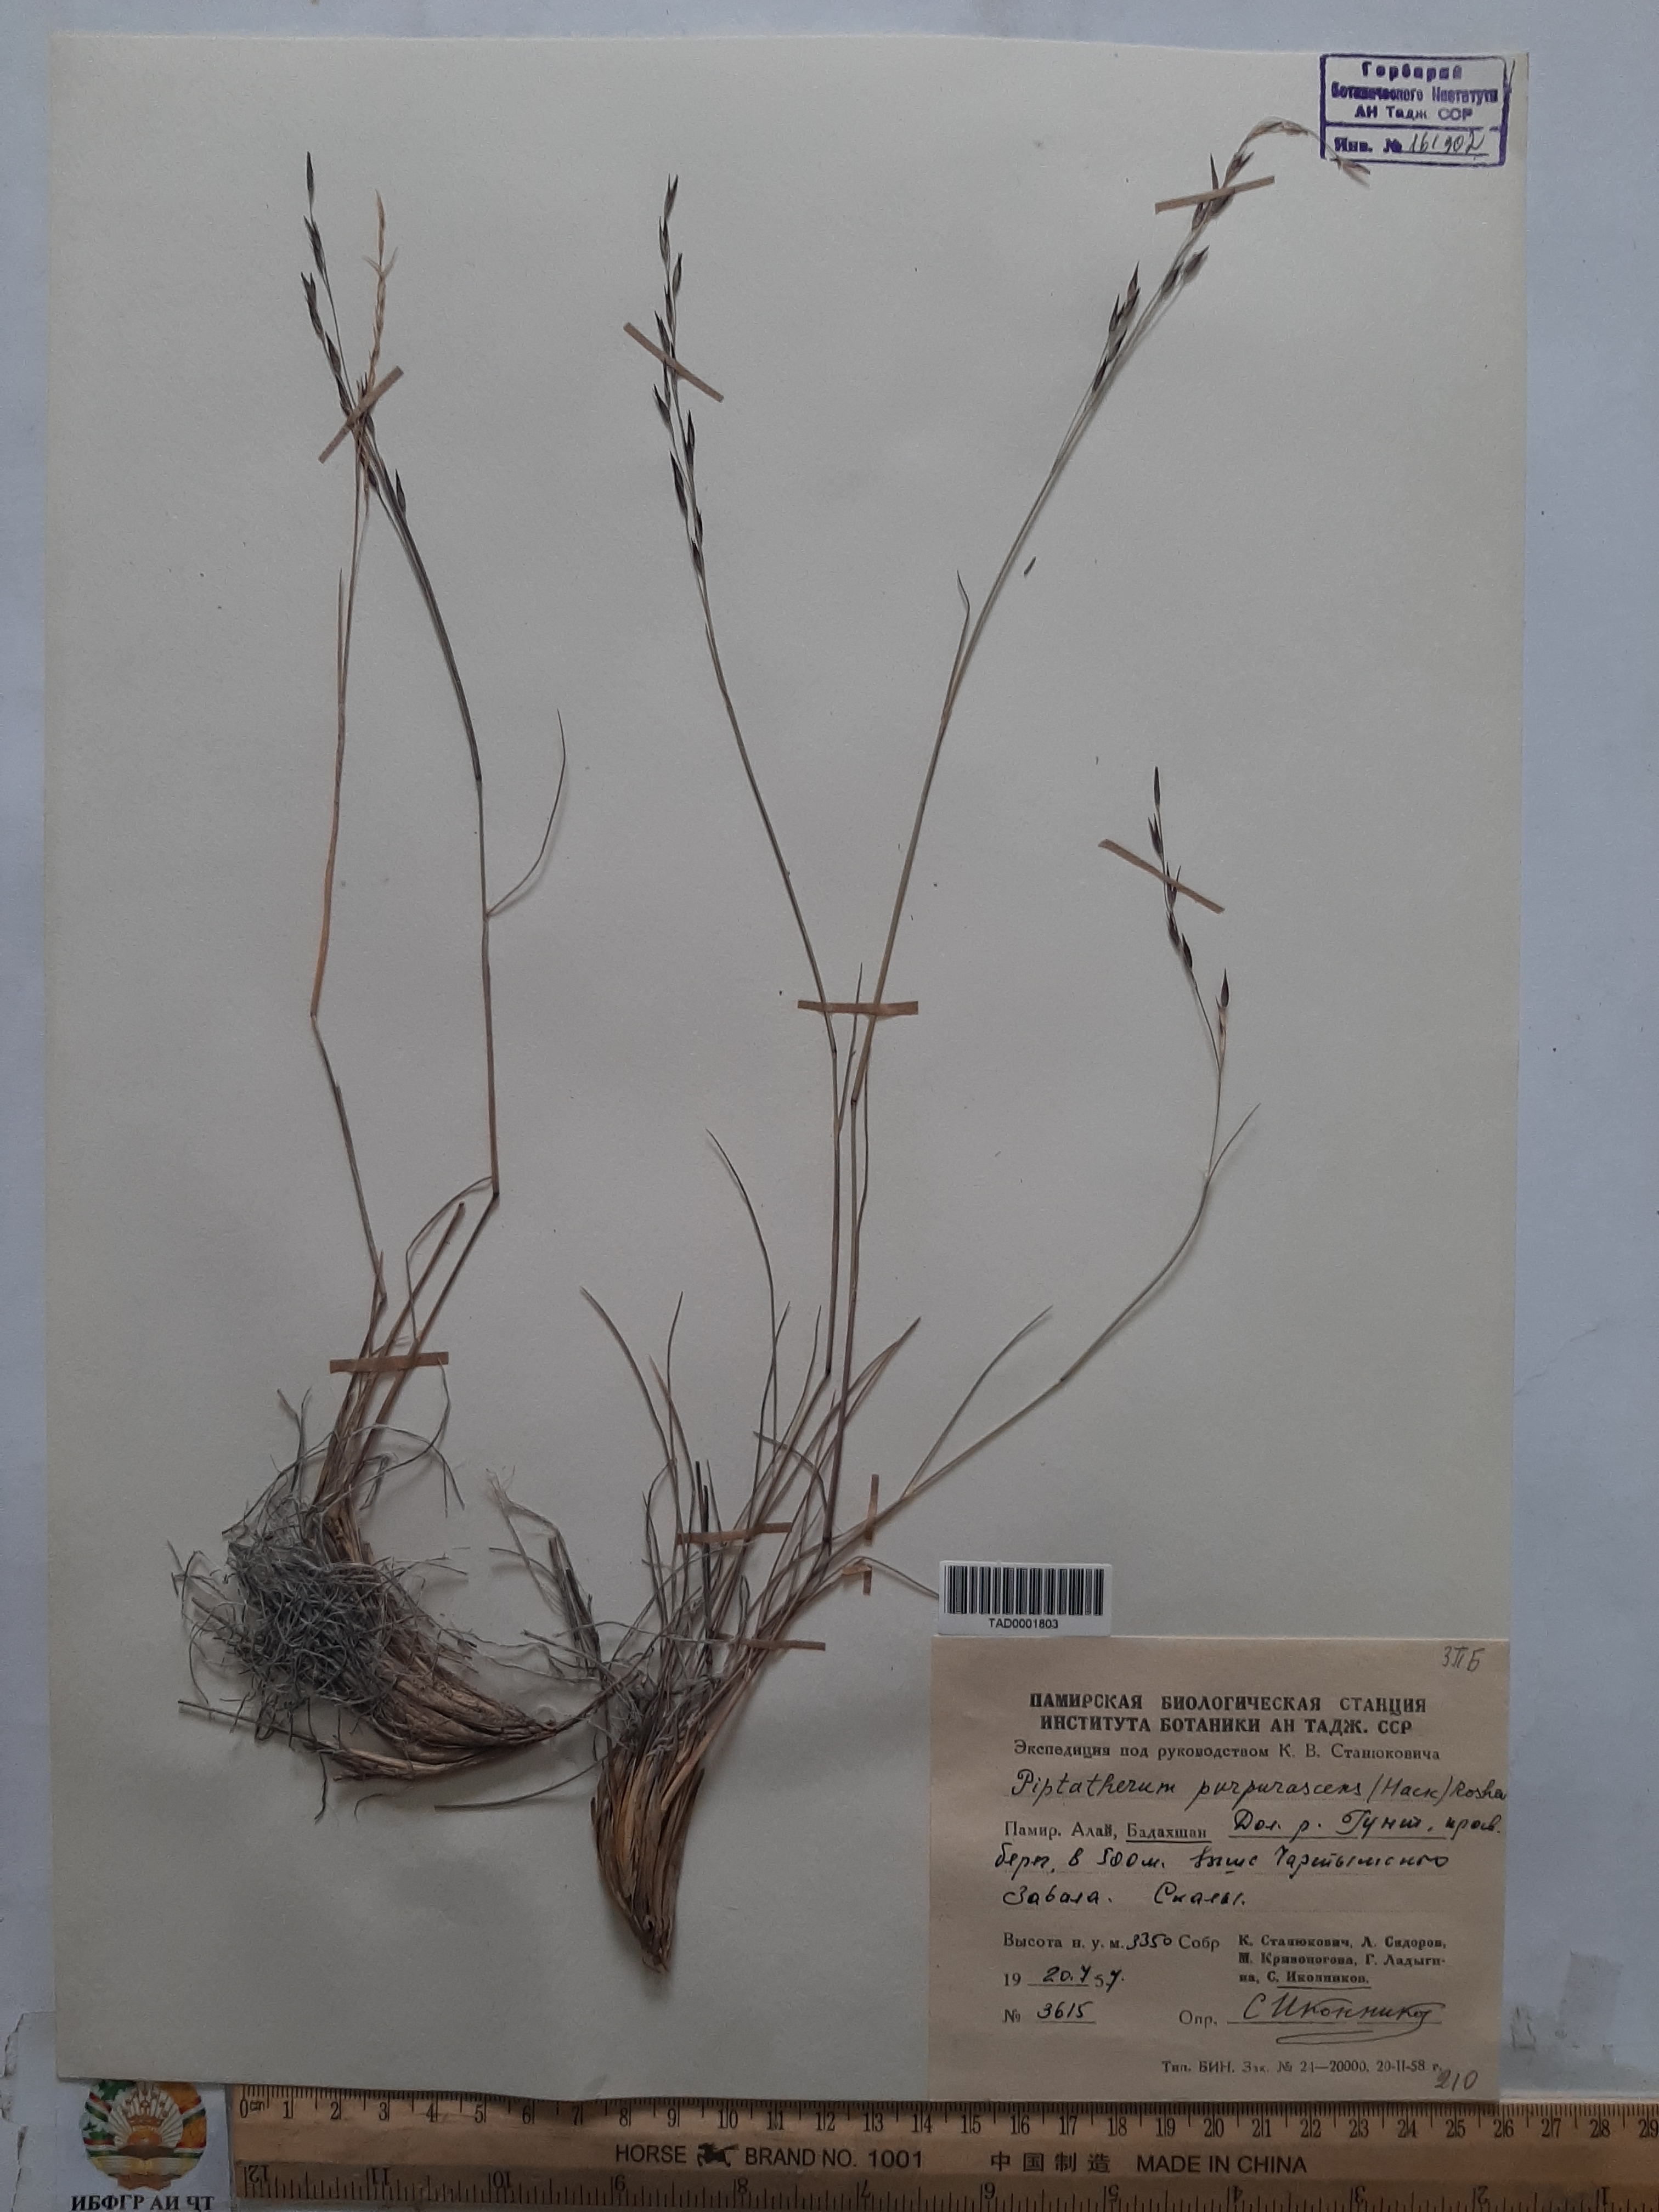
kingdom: Plantae
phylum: Tracheophyta
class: Liliopsida
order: Poales
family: Poaceae
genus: Piptatherum
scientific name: Piptatherum purpurascens
